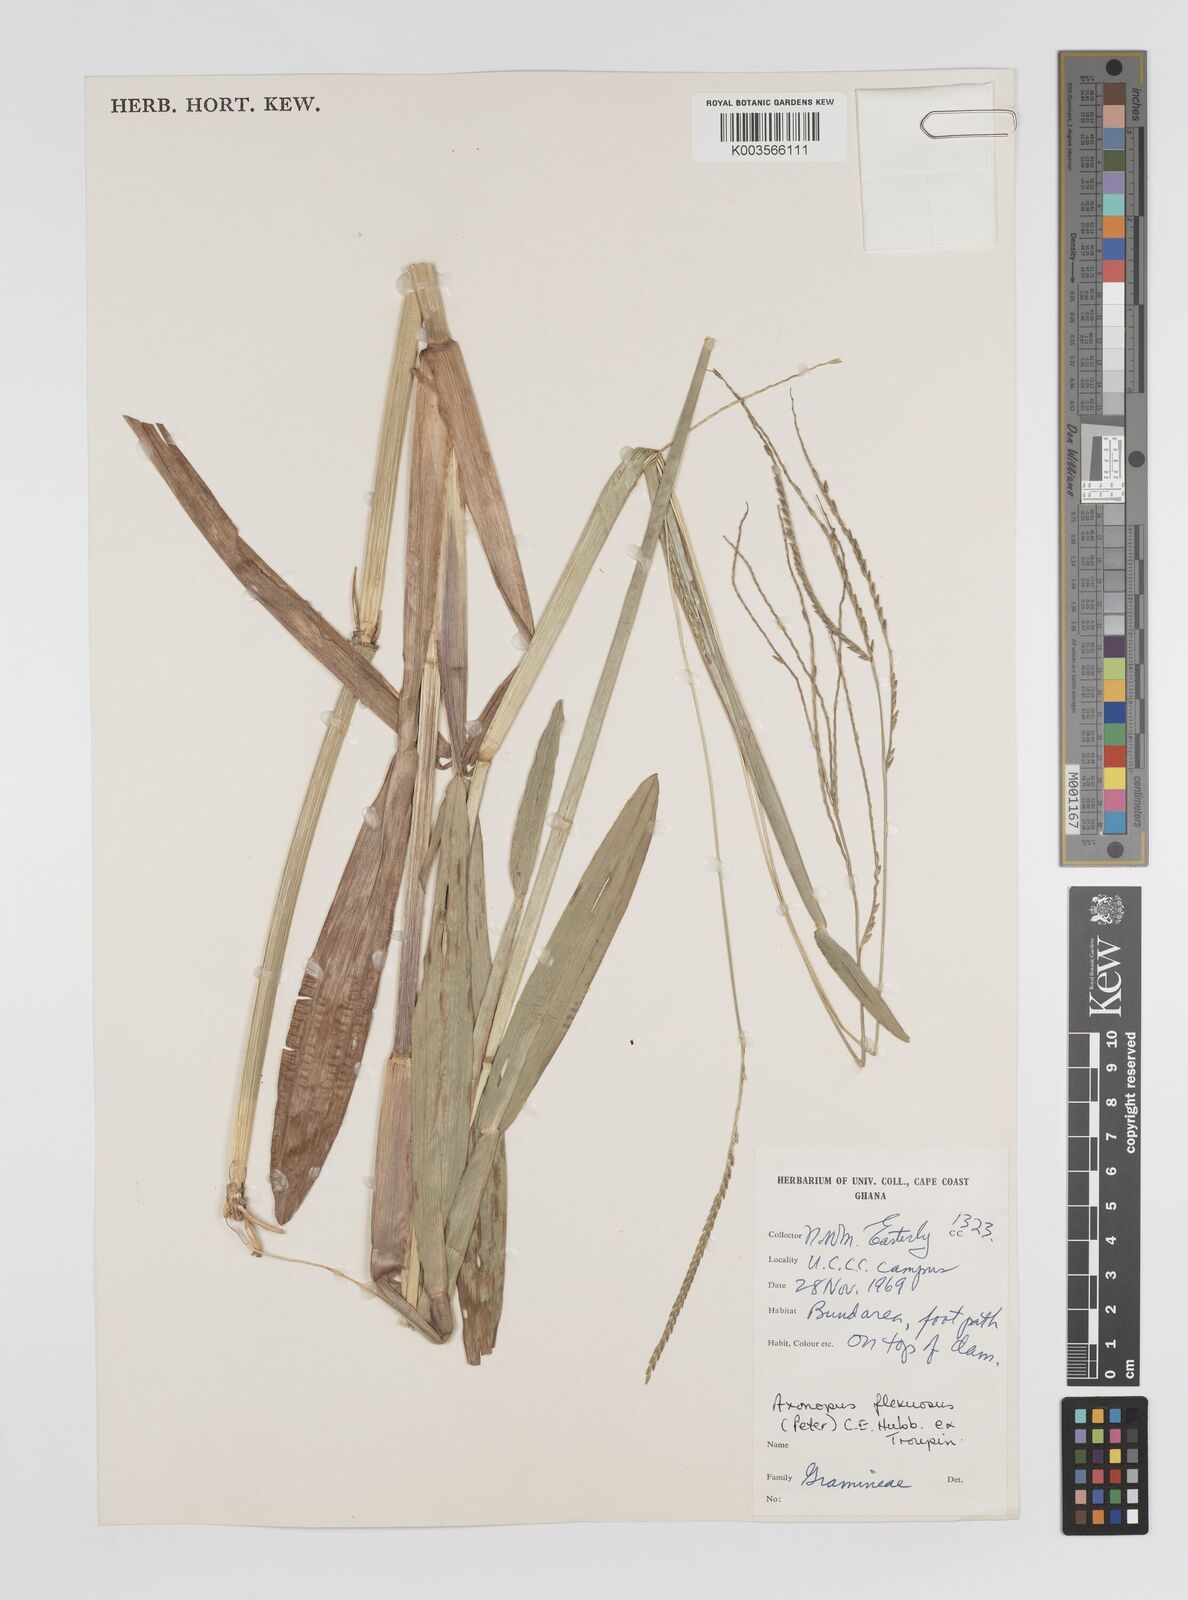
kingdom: Plantae
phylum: Tracheophyta
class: Liliopsida
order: Poales
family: Poaceae
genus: Axonopus
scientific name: Axonopus flexuosus
